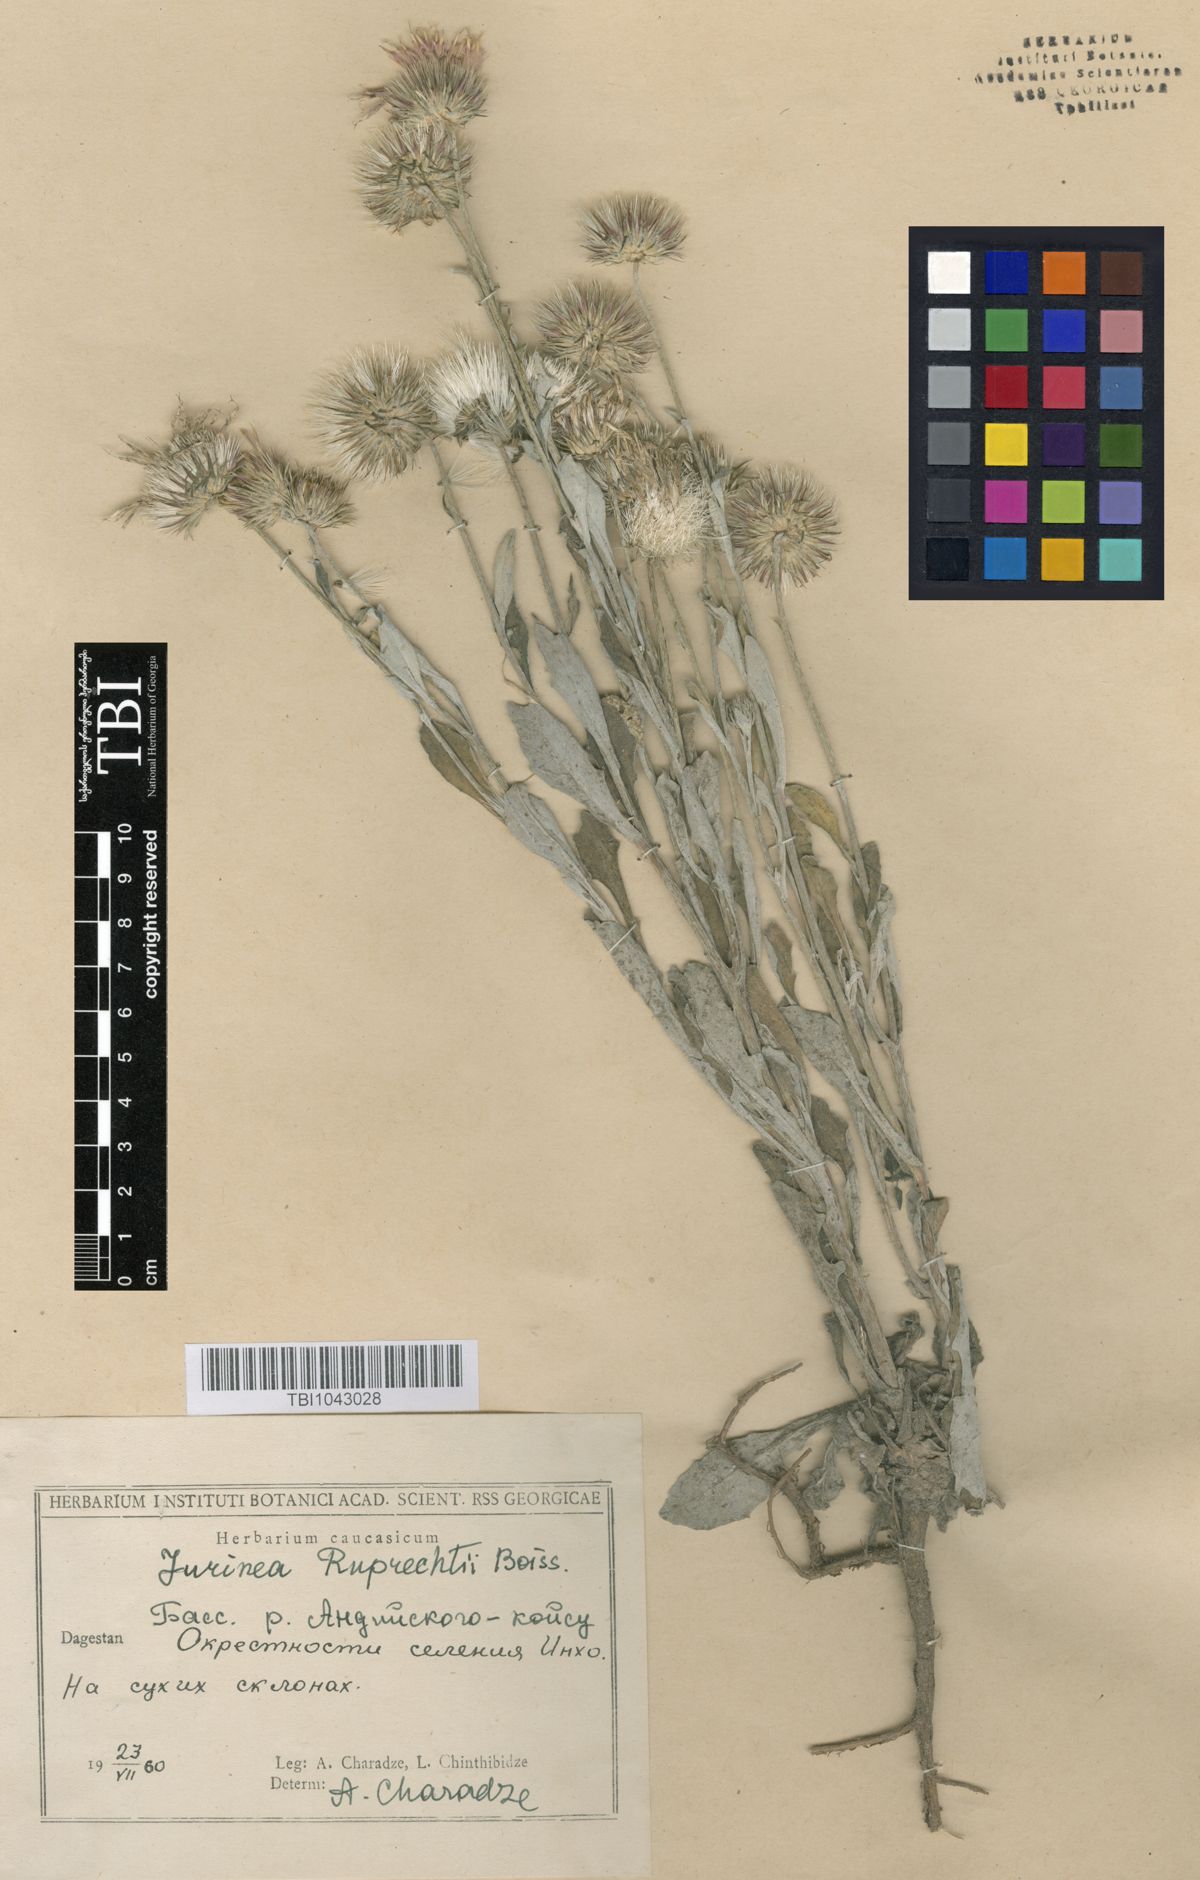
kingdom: Plantae
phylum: Tracheophyta
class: Magnoliopsida
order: Asterales
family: Asteraceae
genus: Jurinea
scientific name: Jurinea ruprechtii
